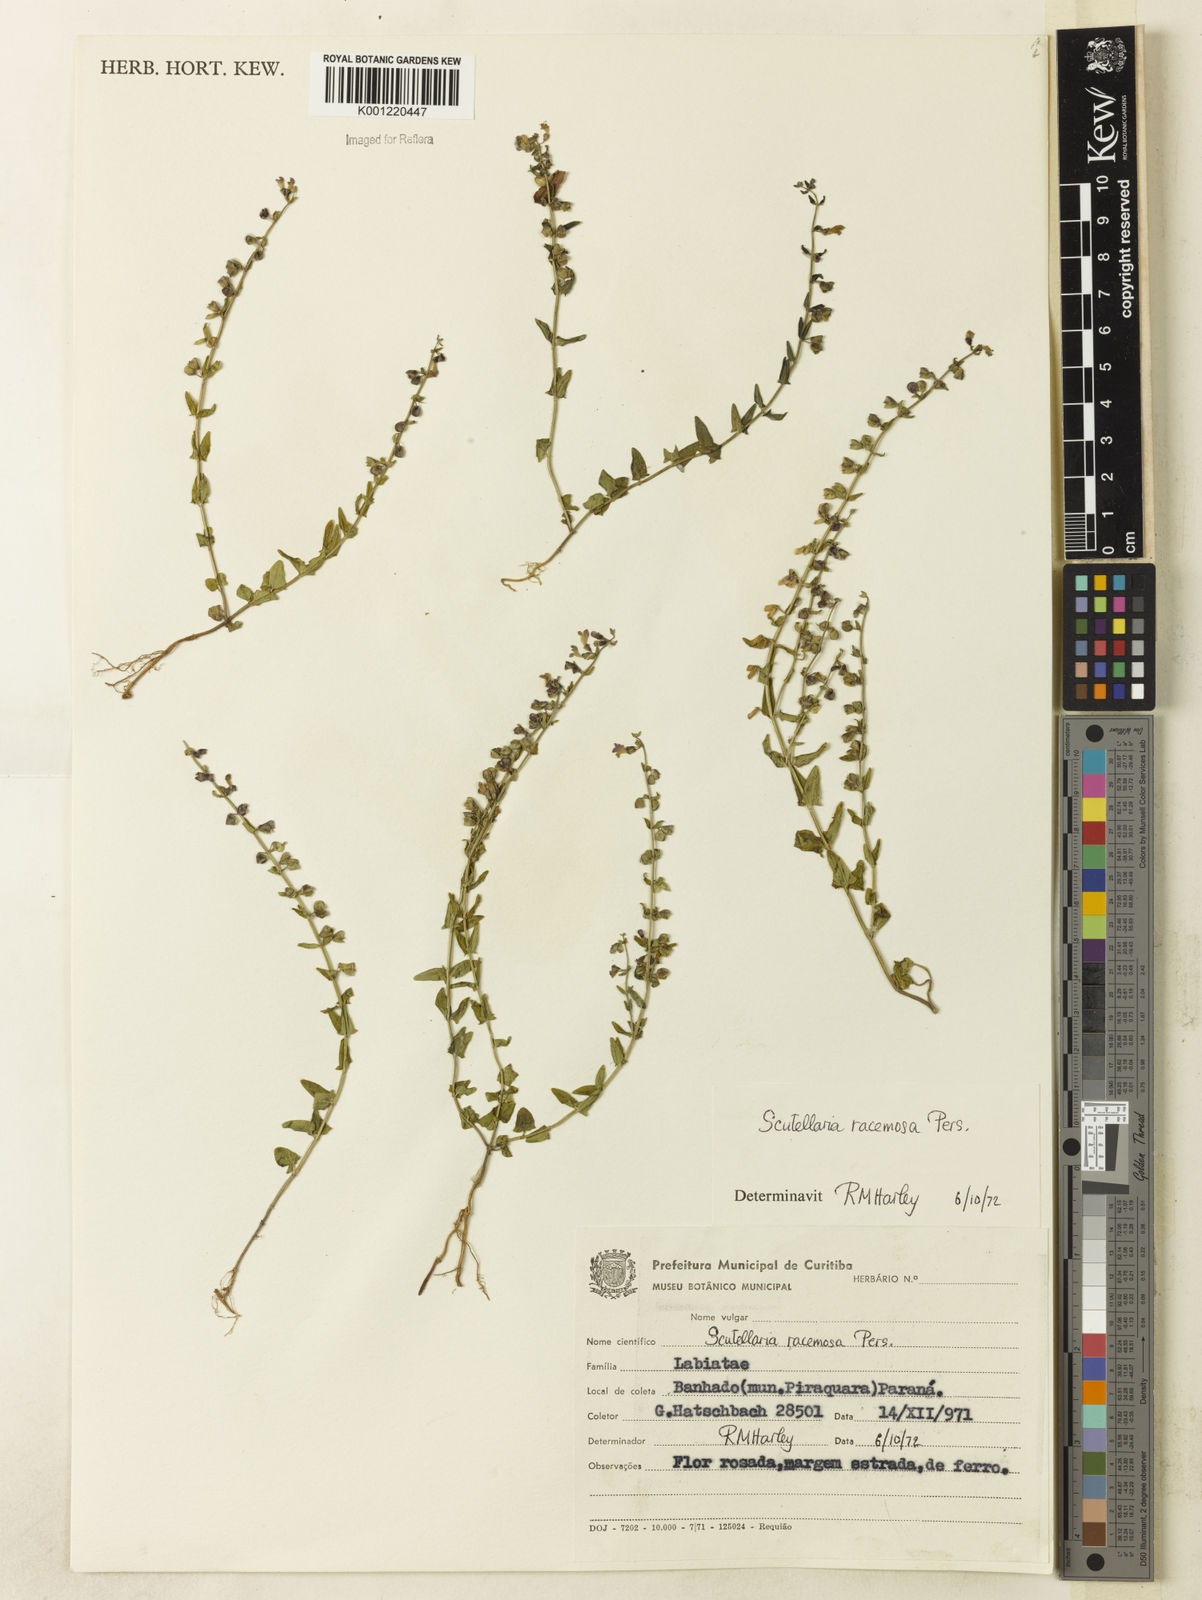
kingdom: Plantae
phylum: Tracheophyta
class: Magnoliopsida
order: Lamiales
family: Lamiaceae
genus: Scutellaria
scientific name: Scutellaria racemosa
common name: South american skullcap
